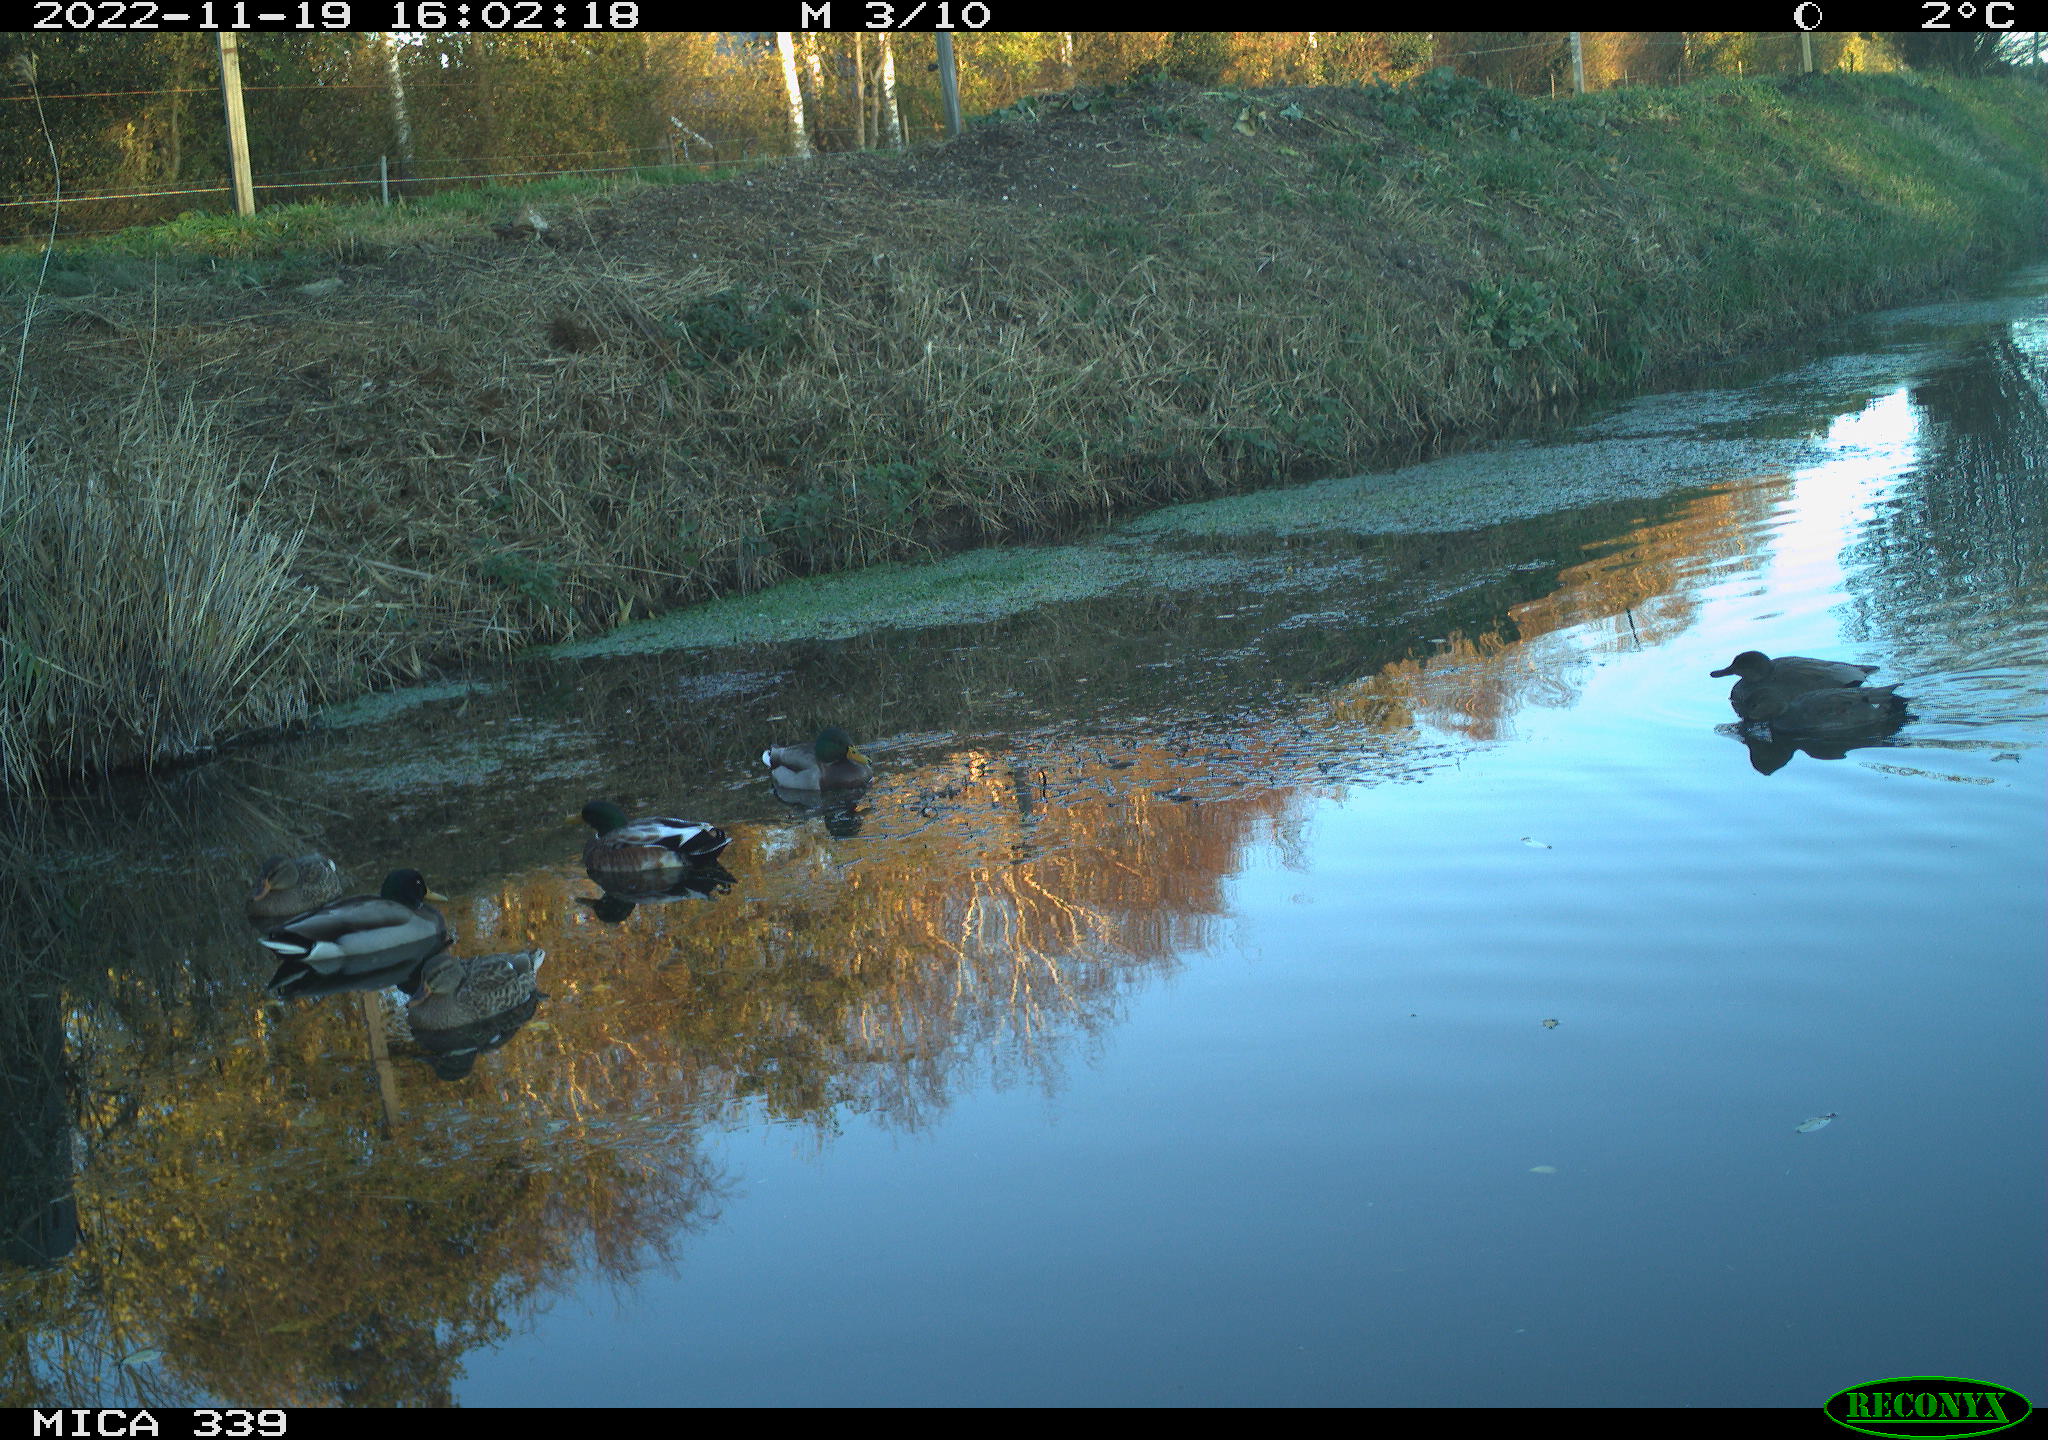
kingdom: Animalia
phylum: Chordata
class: Aves
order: Anseriformes
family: Anatidae
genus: Mareca
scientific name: Mareca strepera
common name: Gadwall
